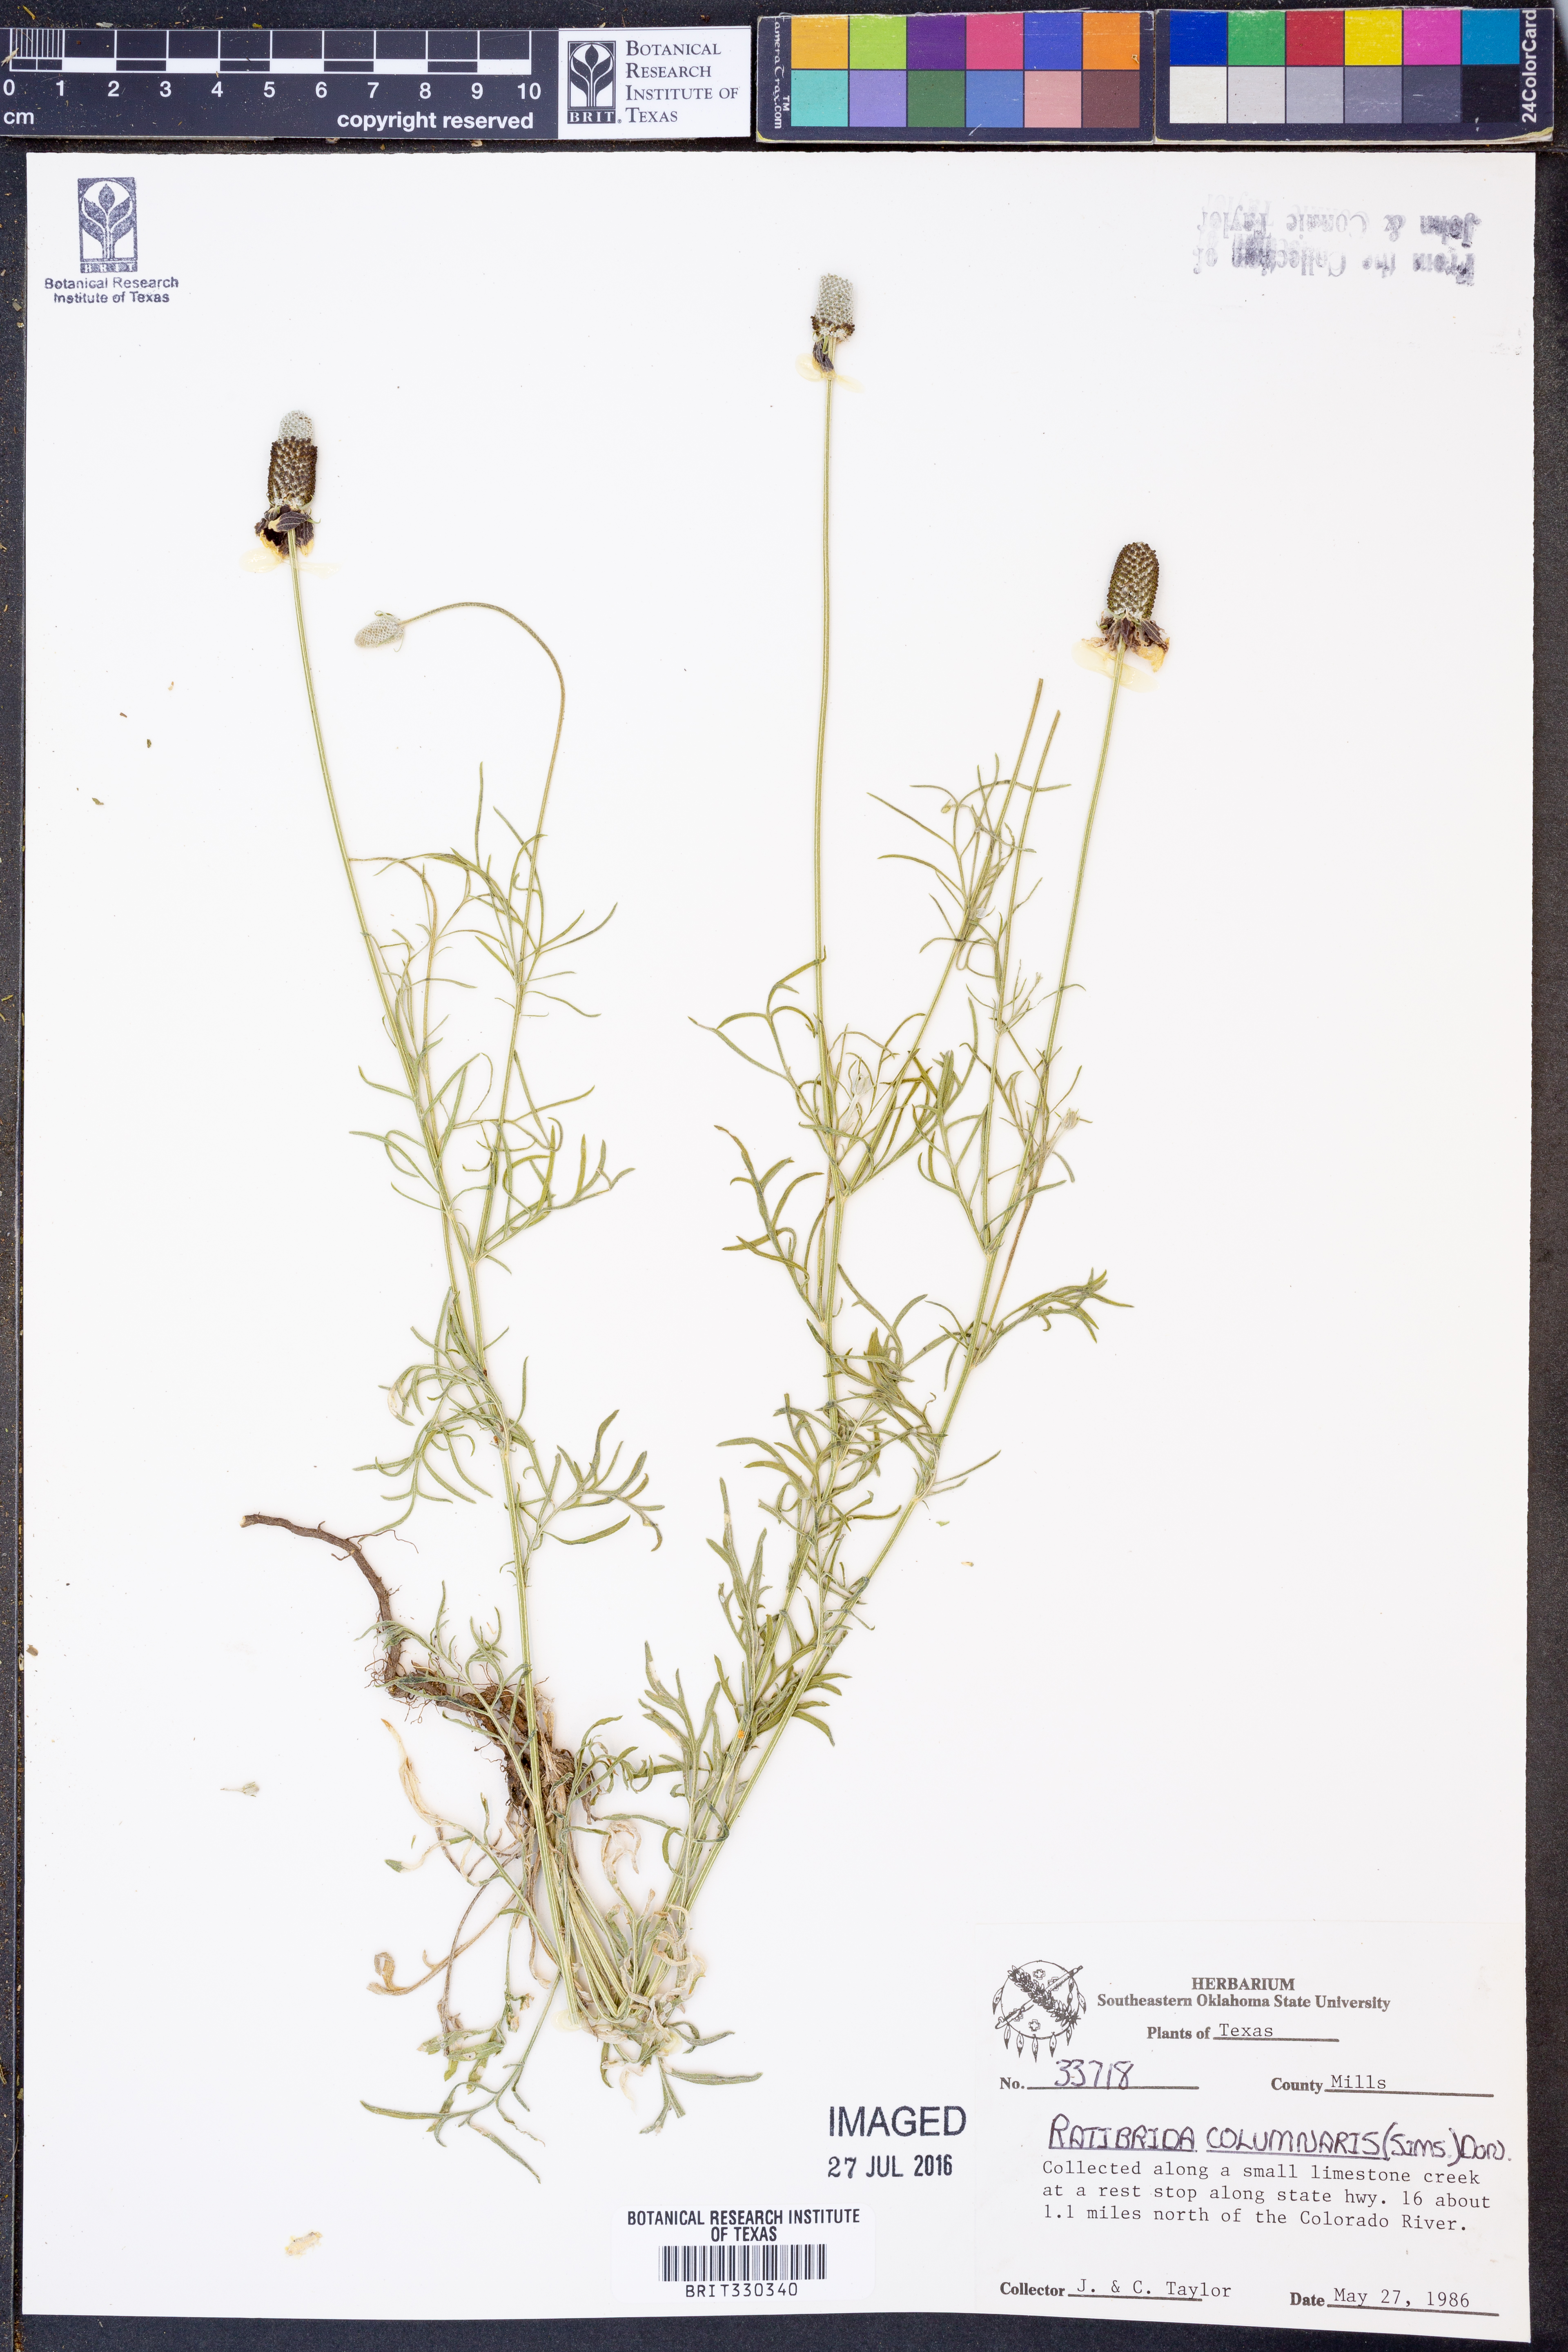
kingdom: Plantae
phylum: Tracheophyta
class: Magnoliopsida
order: Asterales
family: Asteraceae
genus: Ratibida
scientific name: Ratibida columnifera
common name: Prairie coneflower
